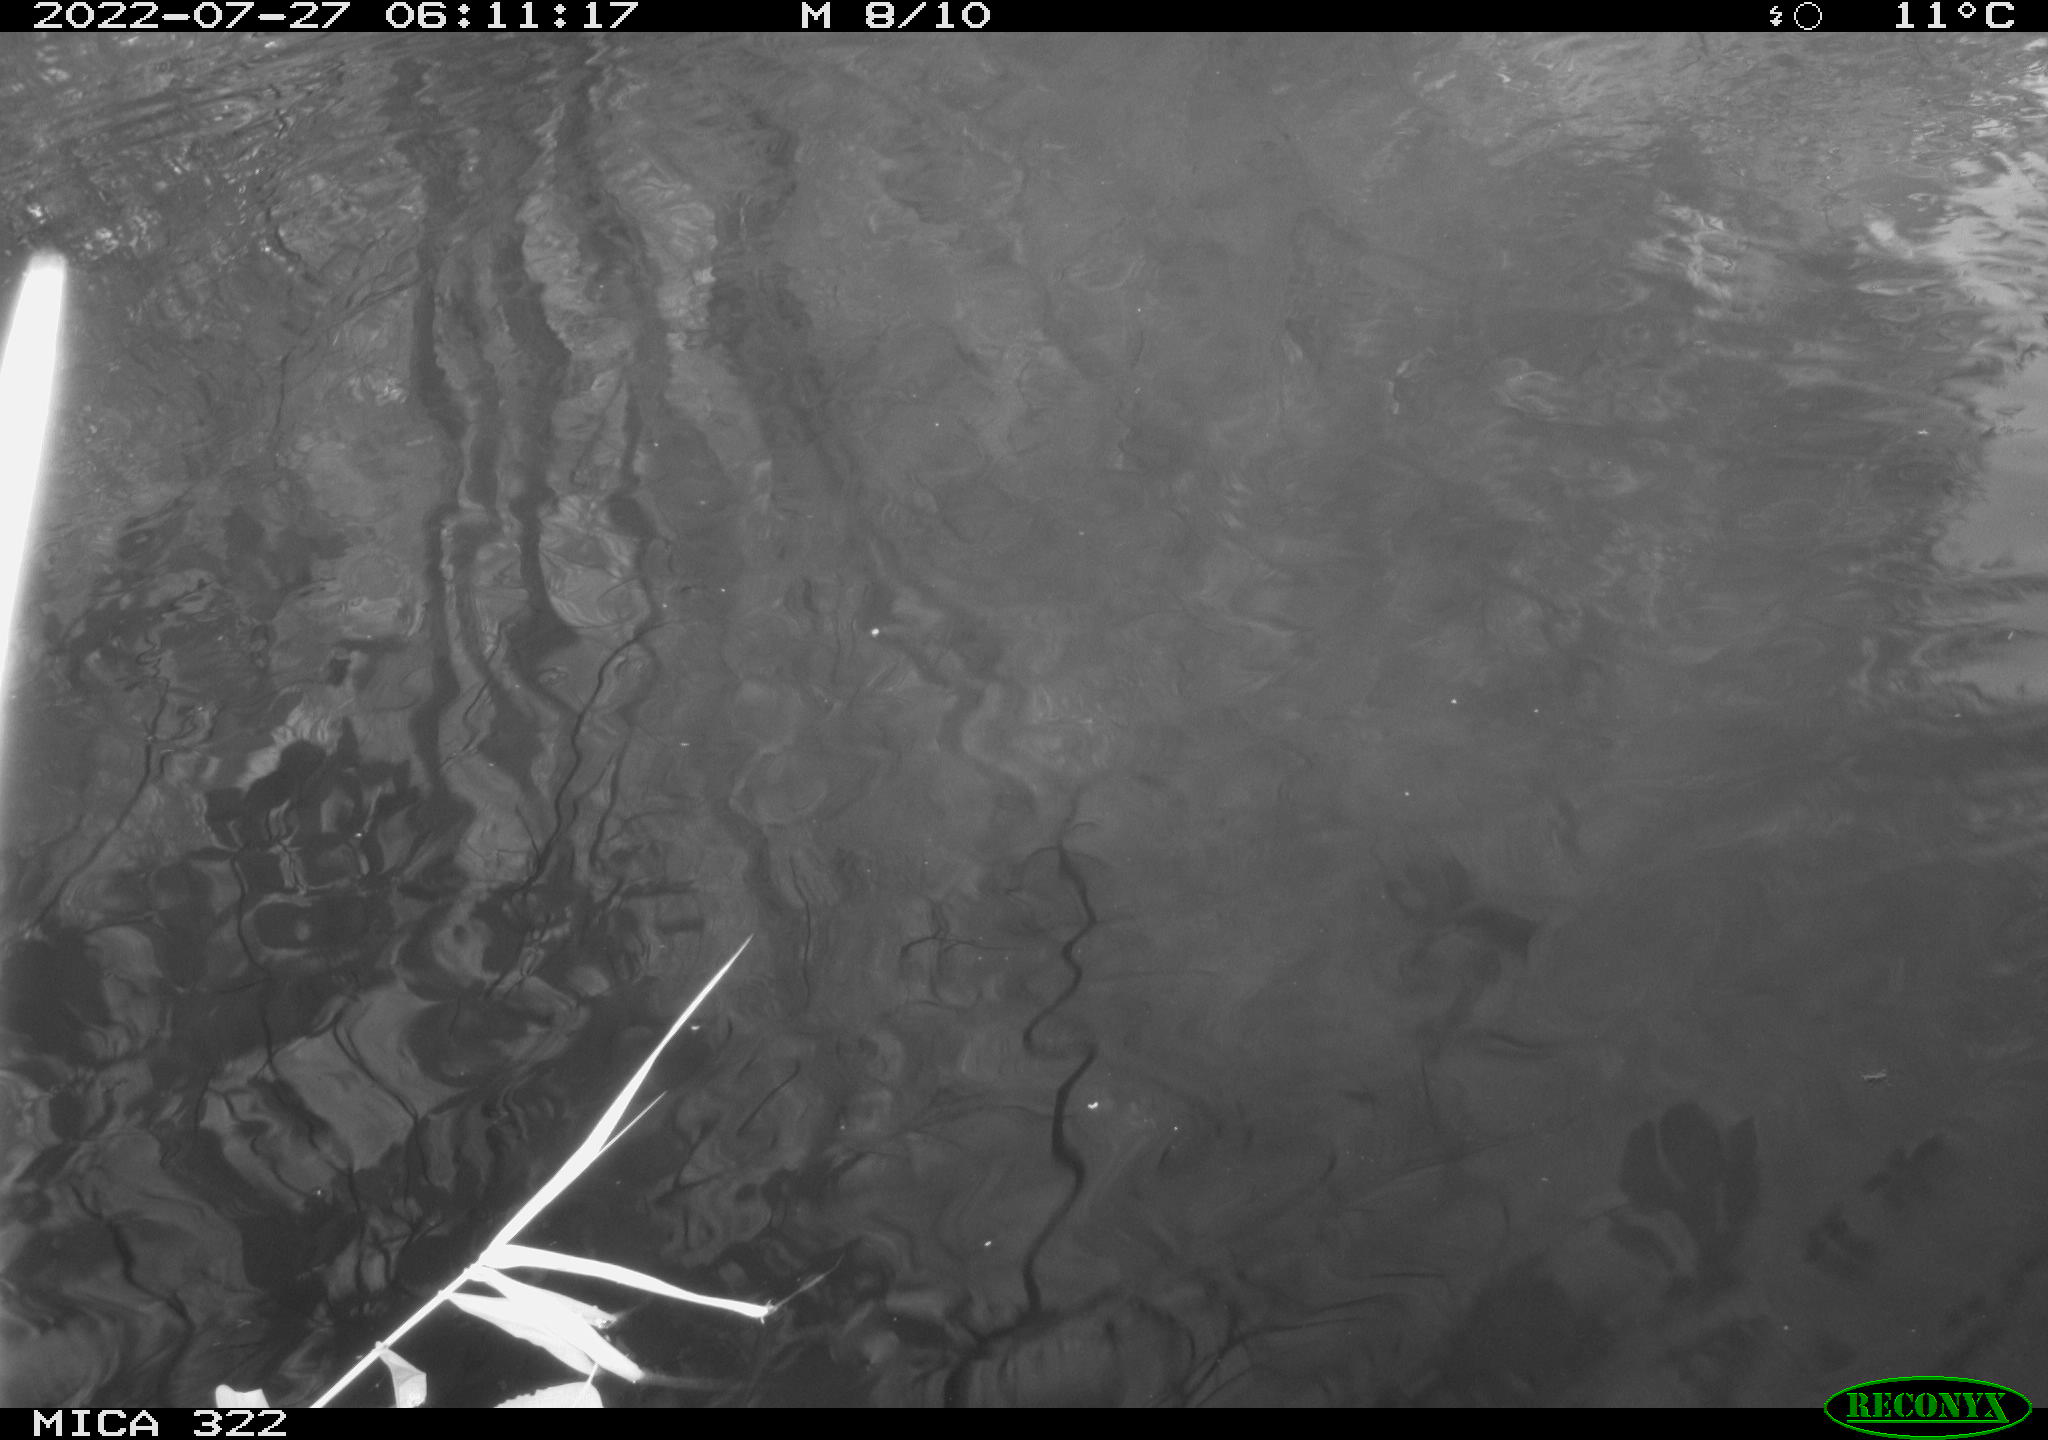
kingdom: Animalia
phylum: Chordata
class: Aves
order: Anseriformes
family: Anatidae
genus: Mareca
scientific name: Mareca strepera
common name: Gadwall
